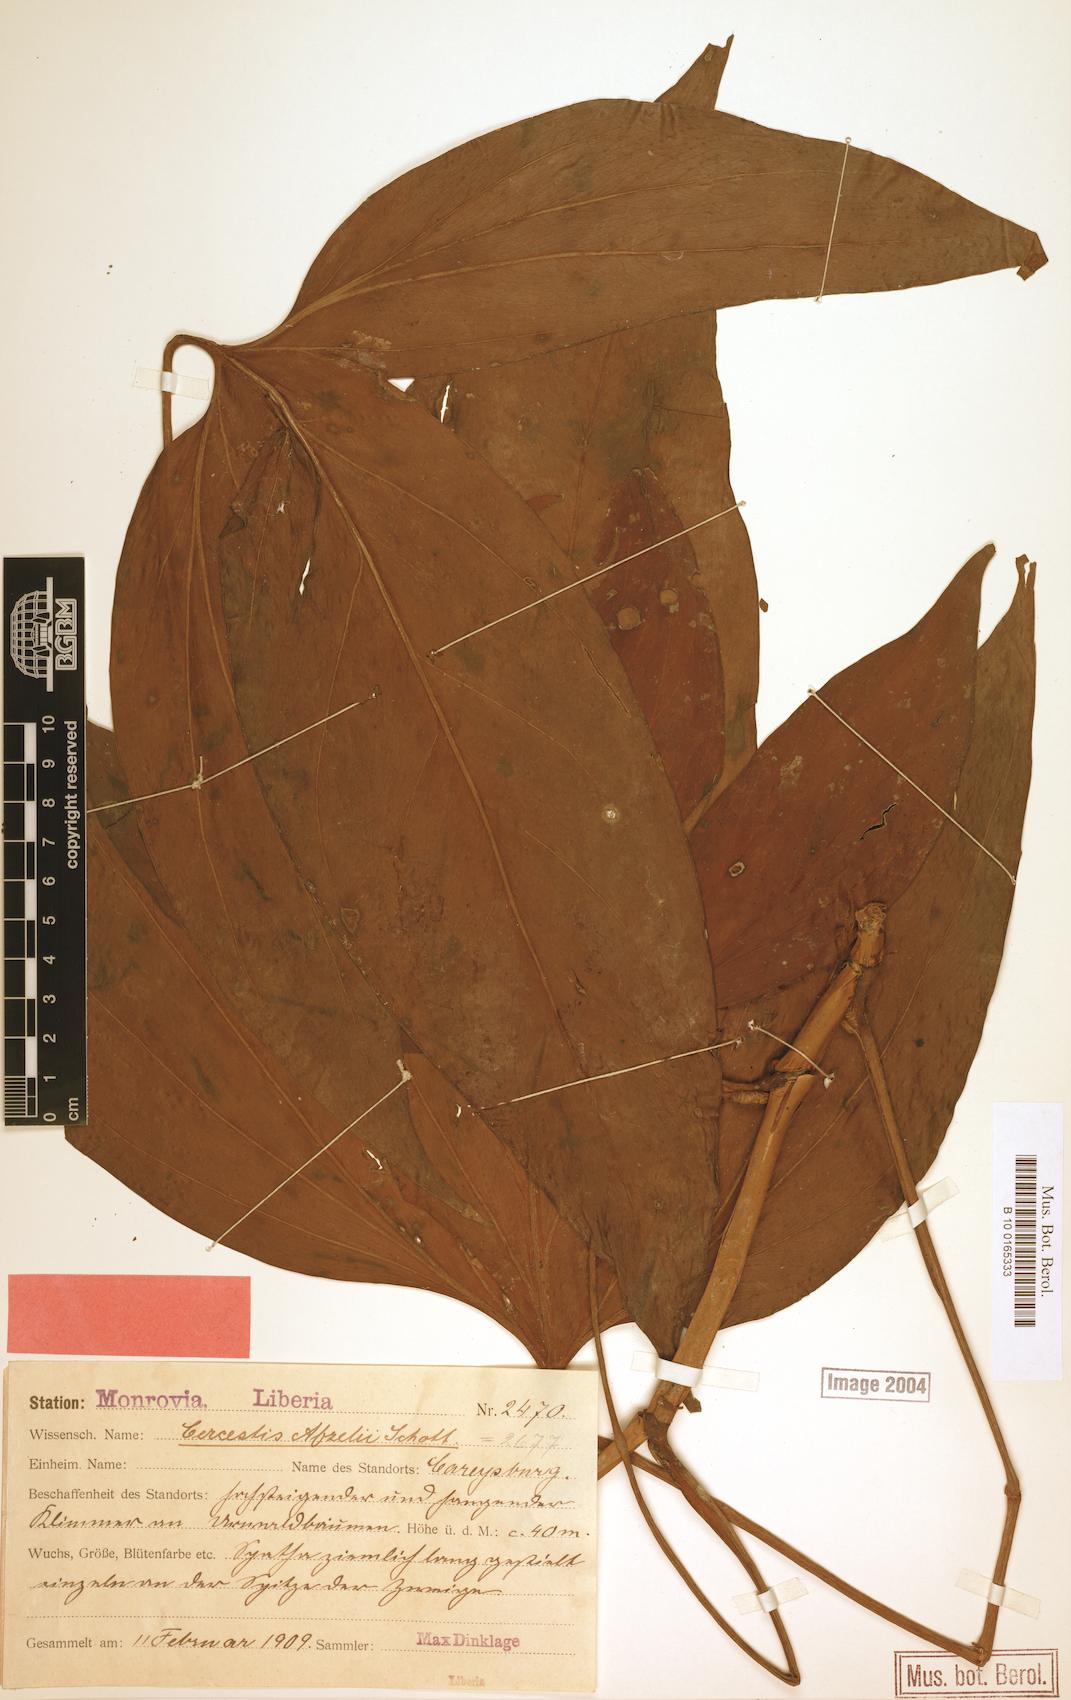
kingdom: Plantae
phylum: Tracheophyta
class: Liliopsida
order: Alismatales
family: Araceae
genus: Cercestis
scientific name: Cercestis afzelii
